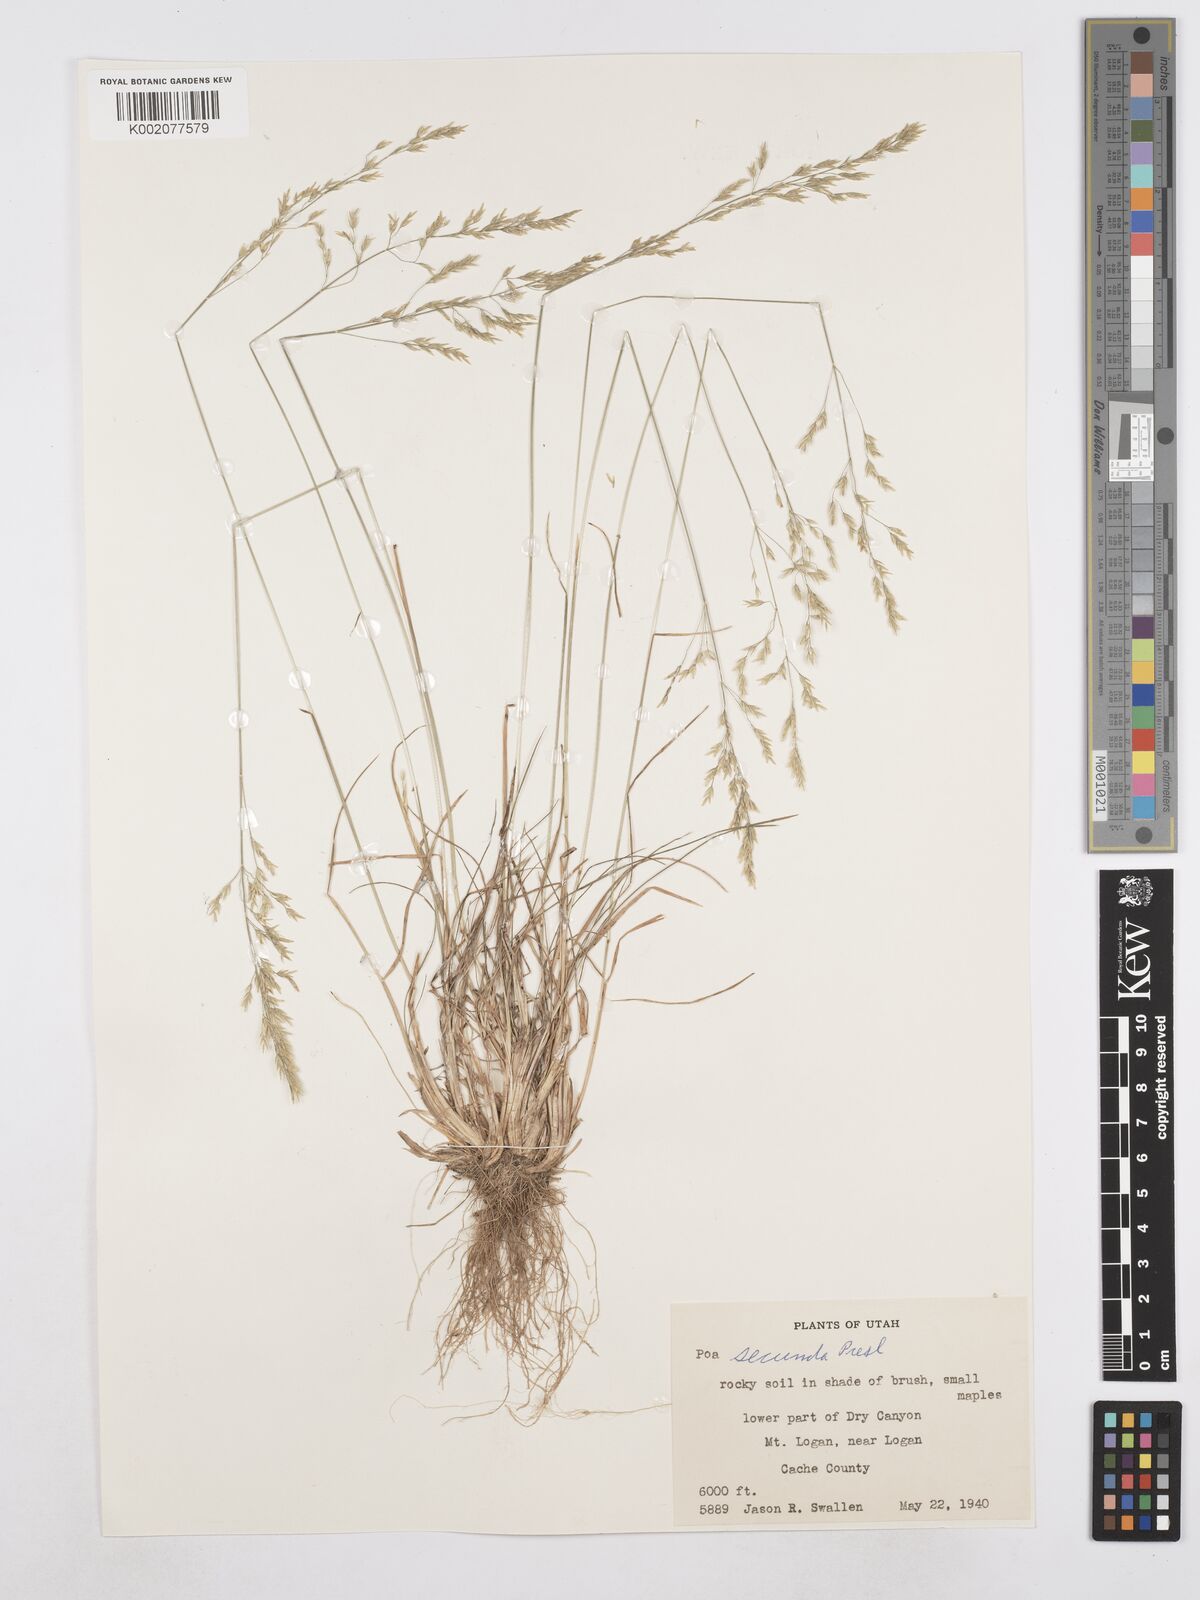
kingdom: Plantae
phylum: Tracheophyta
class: Liliopsida
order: Poales
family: Poaceae
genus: Poa
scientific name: Poa secunda
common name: Sandberg bluegrass
